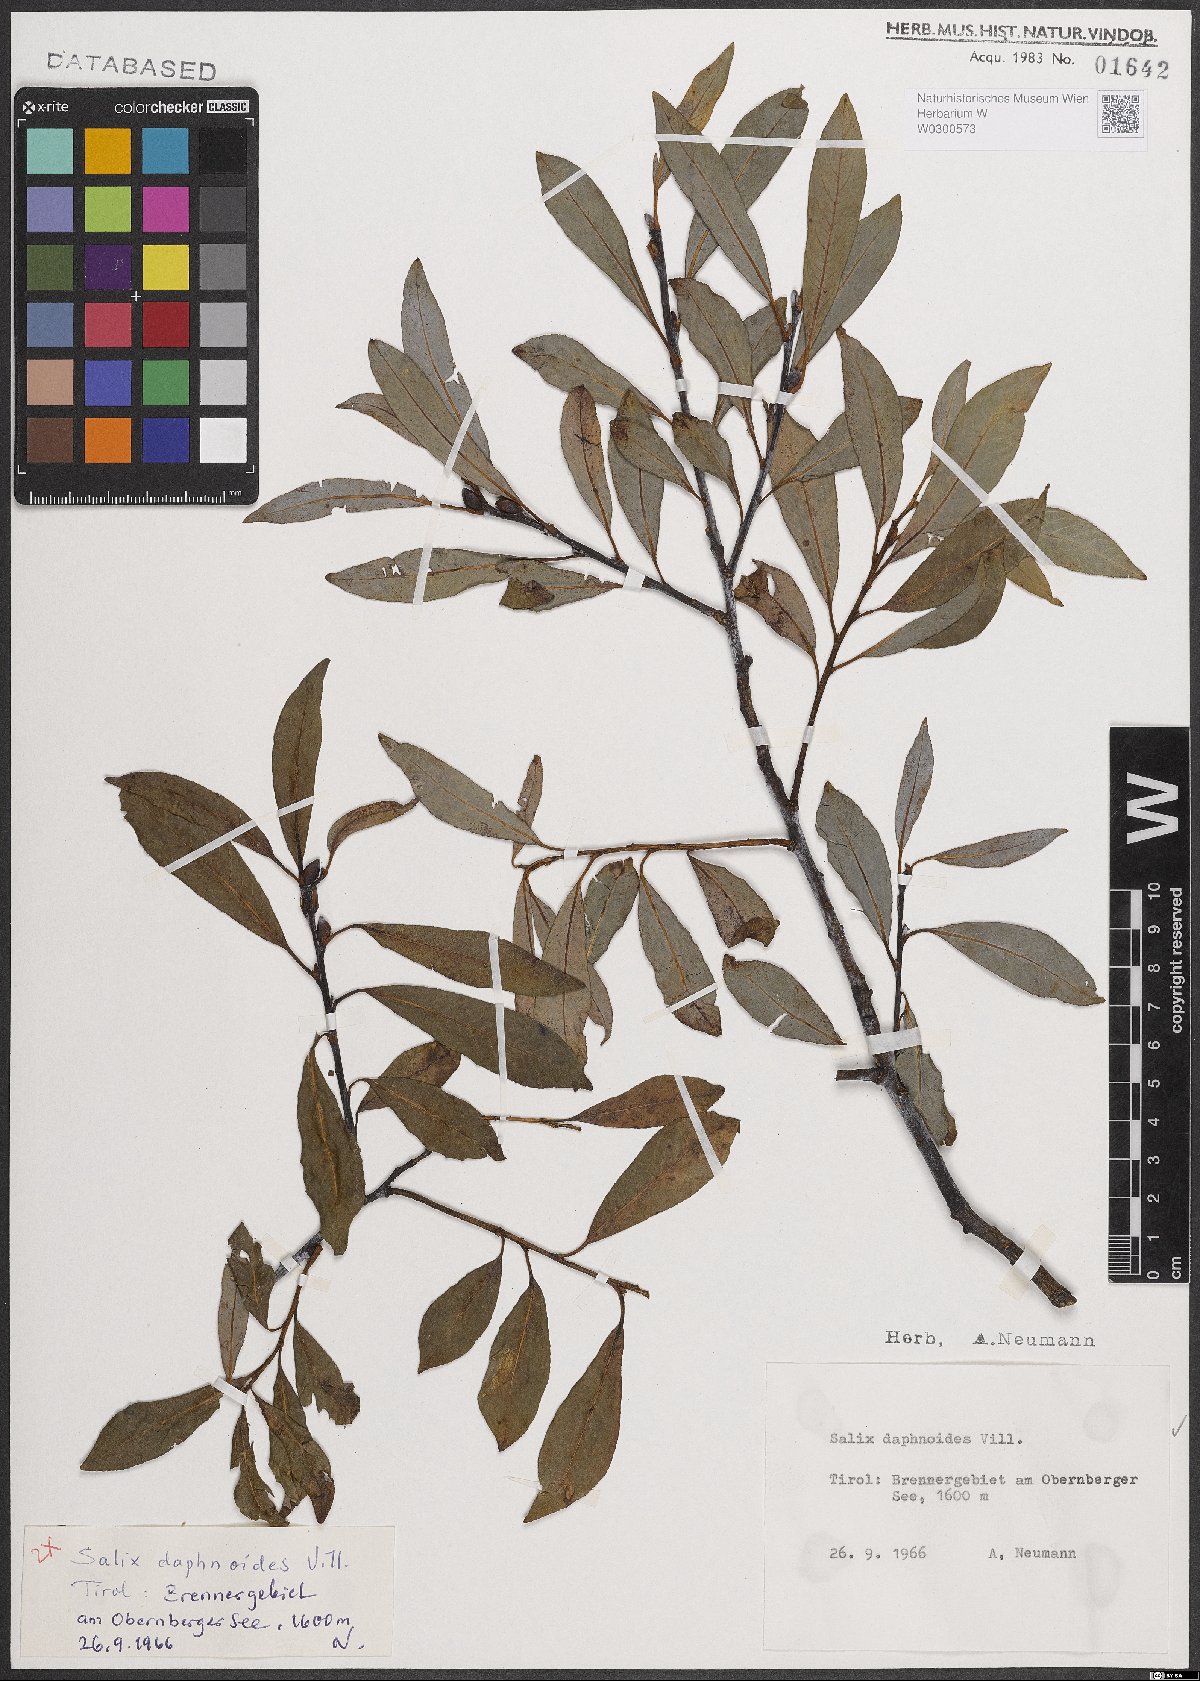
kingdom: Plantae
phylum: Tracheophyta
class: Magnoliopsida
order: Malpighiales
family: Salicaceae
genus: Salix
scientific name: Salix daphnoides
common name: European violet-willow
